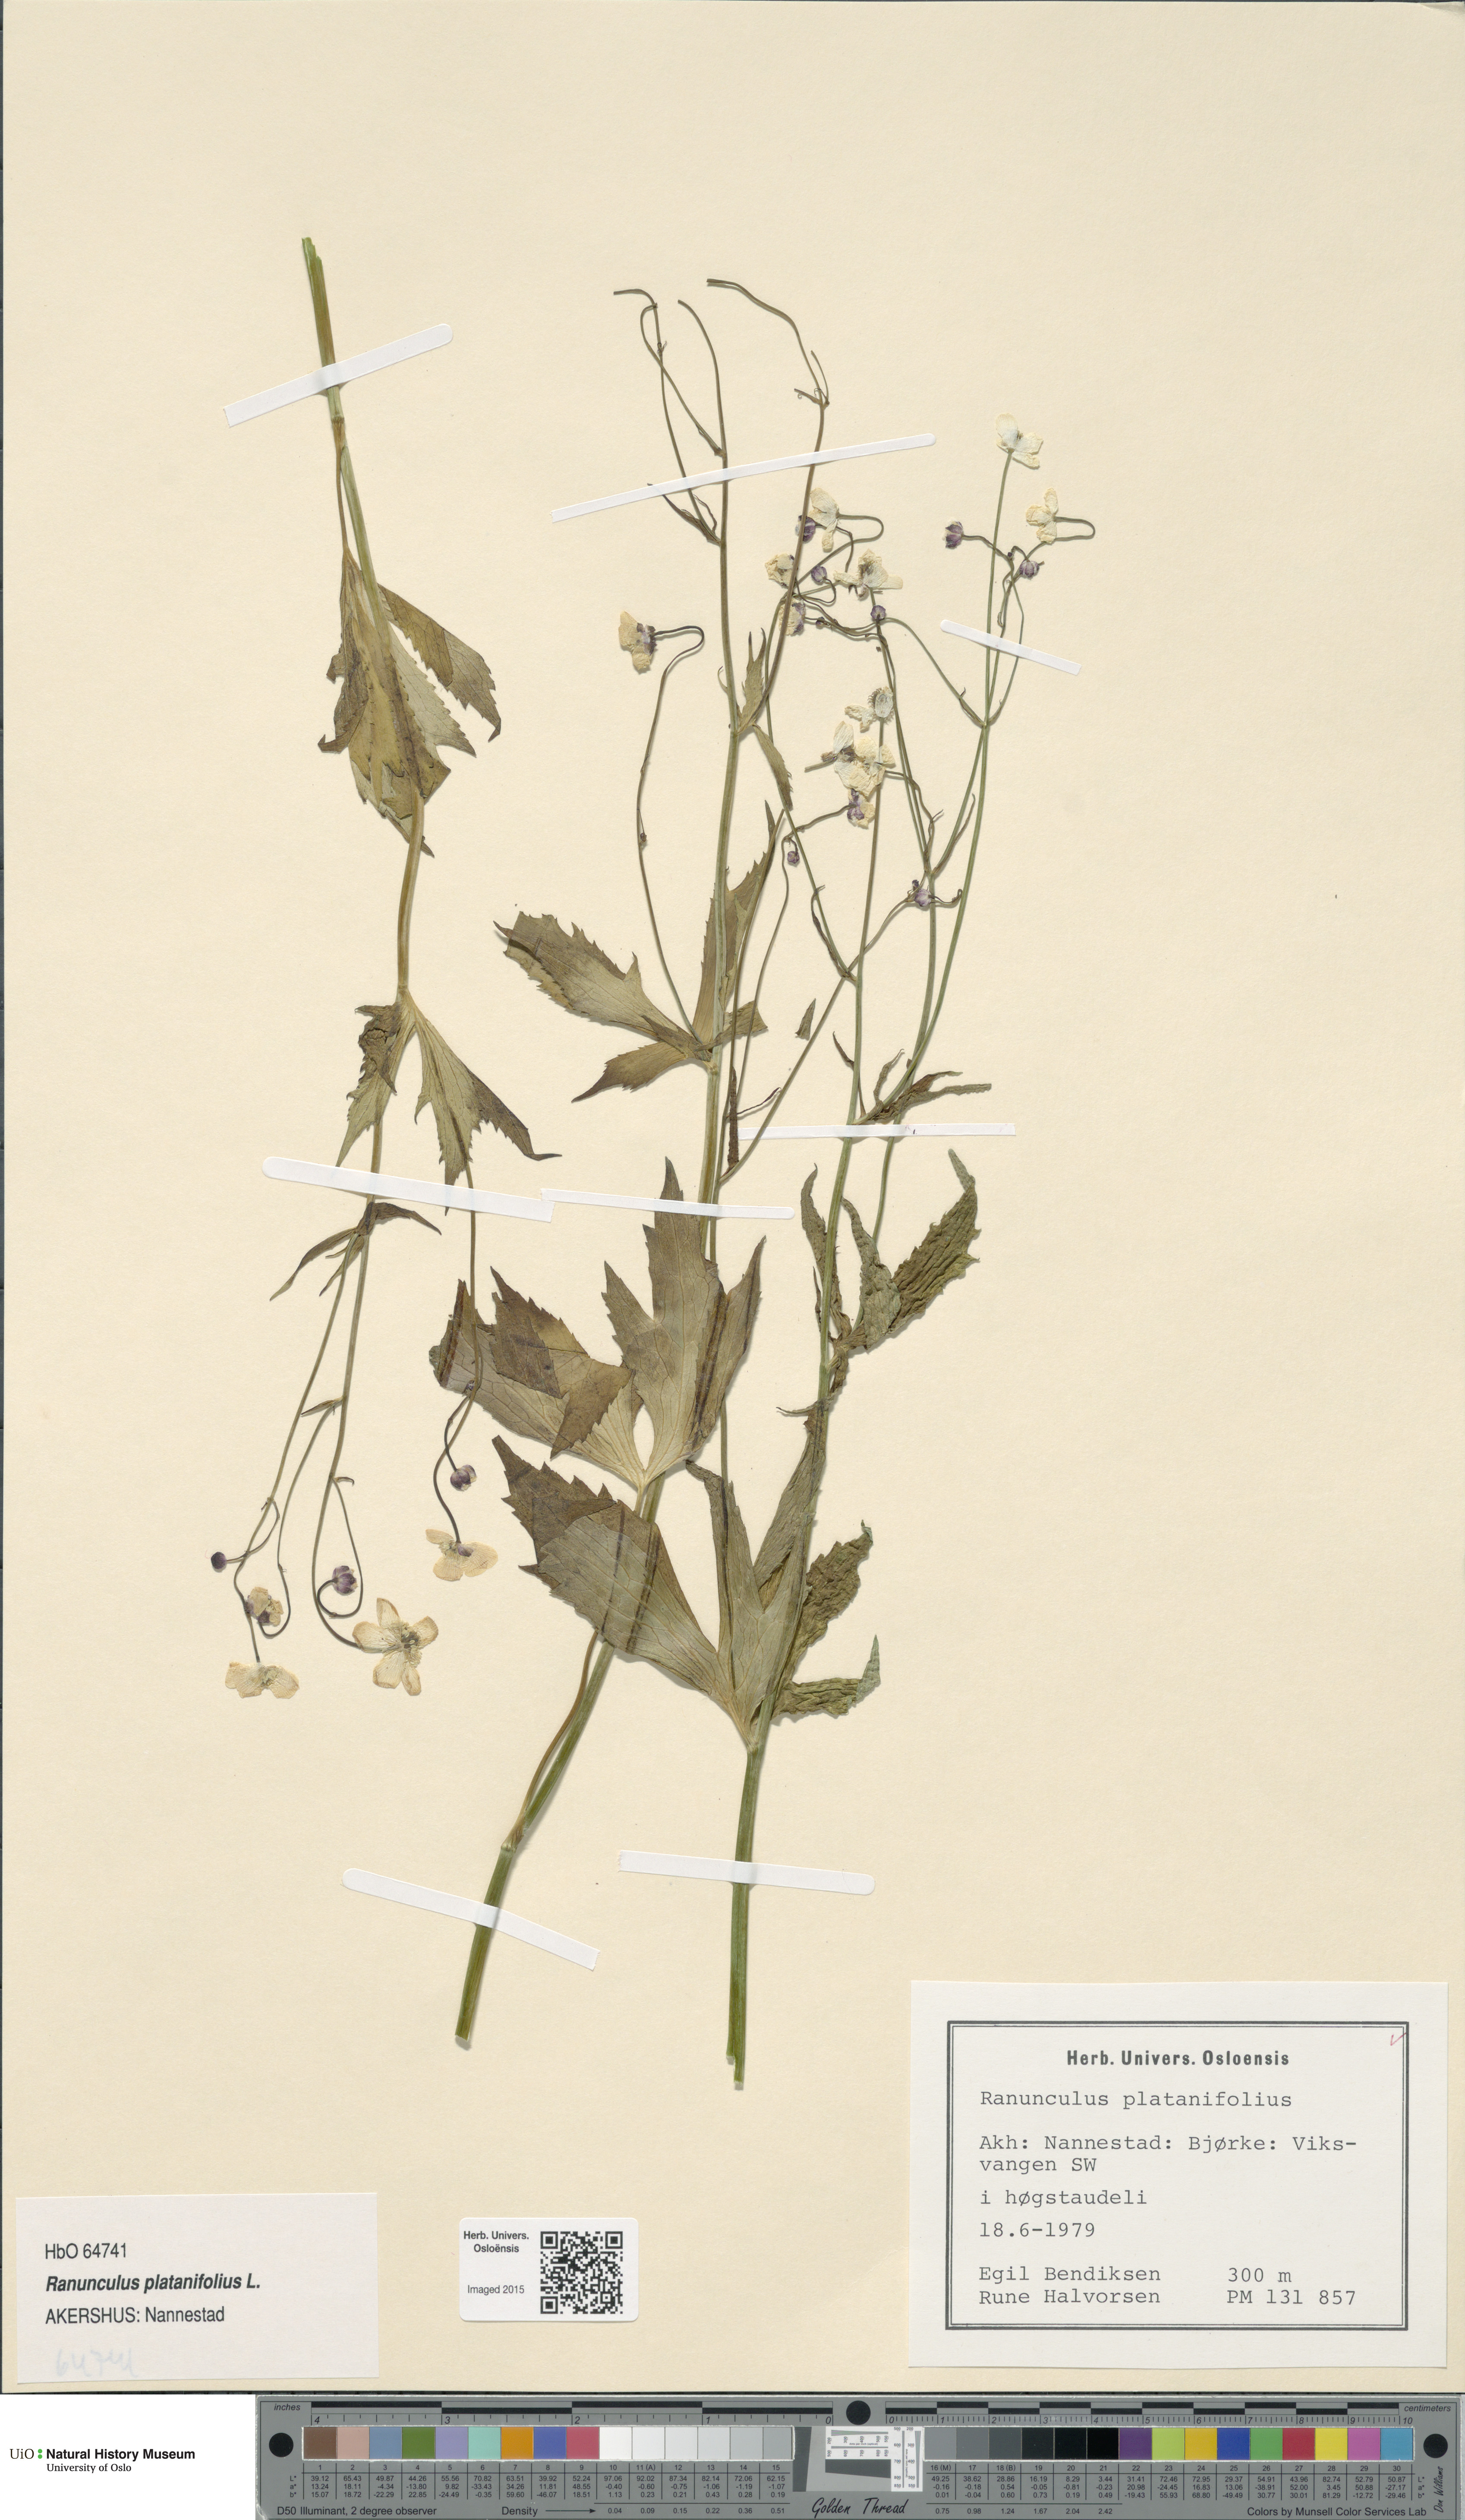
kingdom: Plantae
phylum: Tracheophyta
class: Magnoliopsida
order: Ranunculales
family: Ranunculaceae
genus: Ranunculus
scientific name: Ranunculus platanifolius
